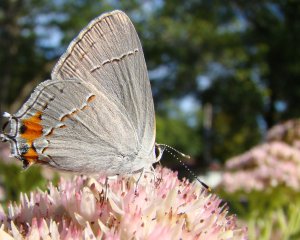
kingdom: Animalia
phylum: Arthropoda
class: Insecta
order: Lepidoptera
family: Lycaenidae
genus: Strymon
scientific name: Strymon melinus
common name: Gray Hairstreak
